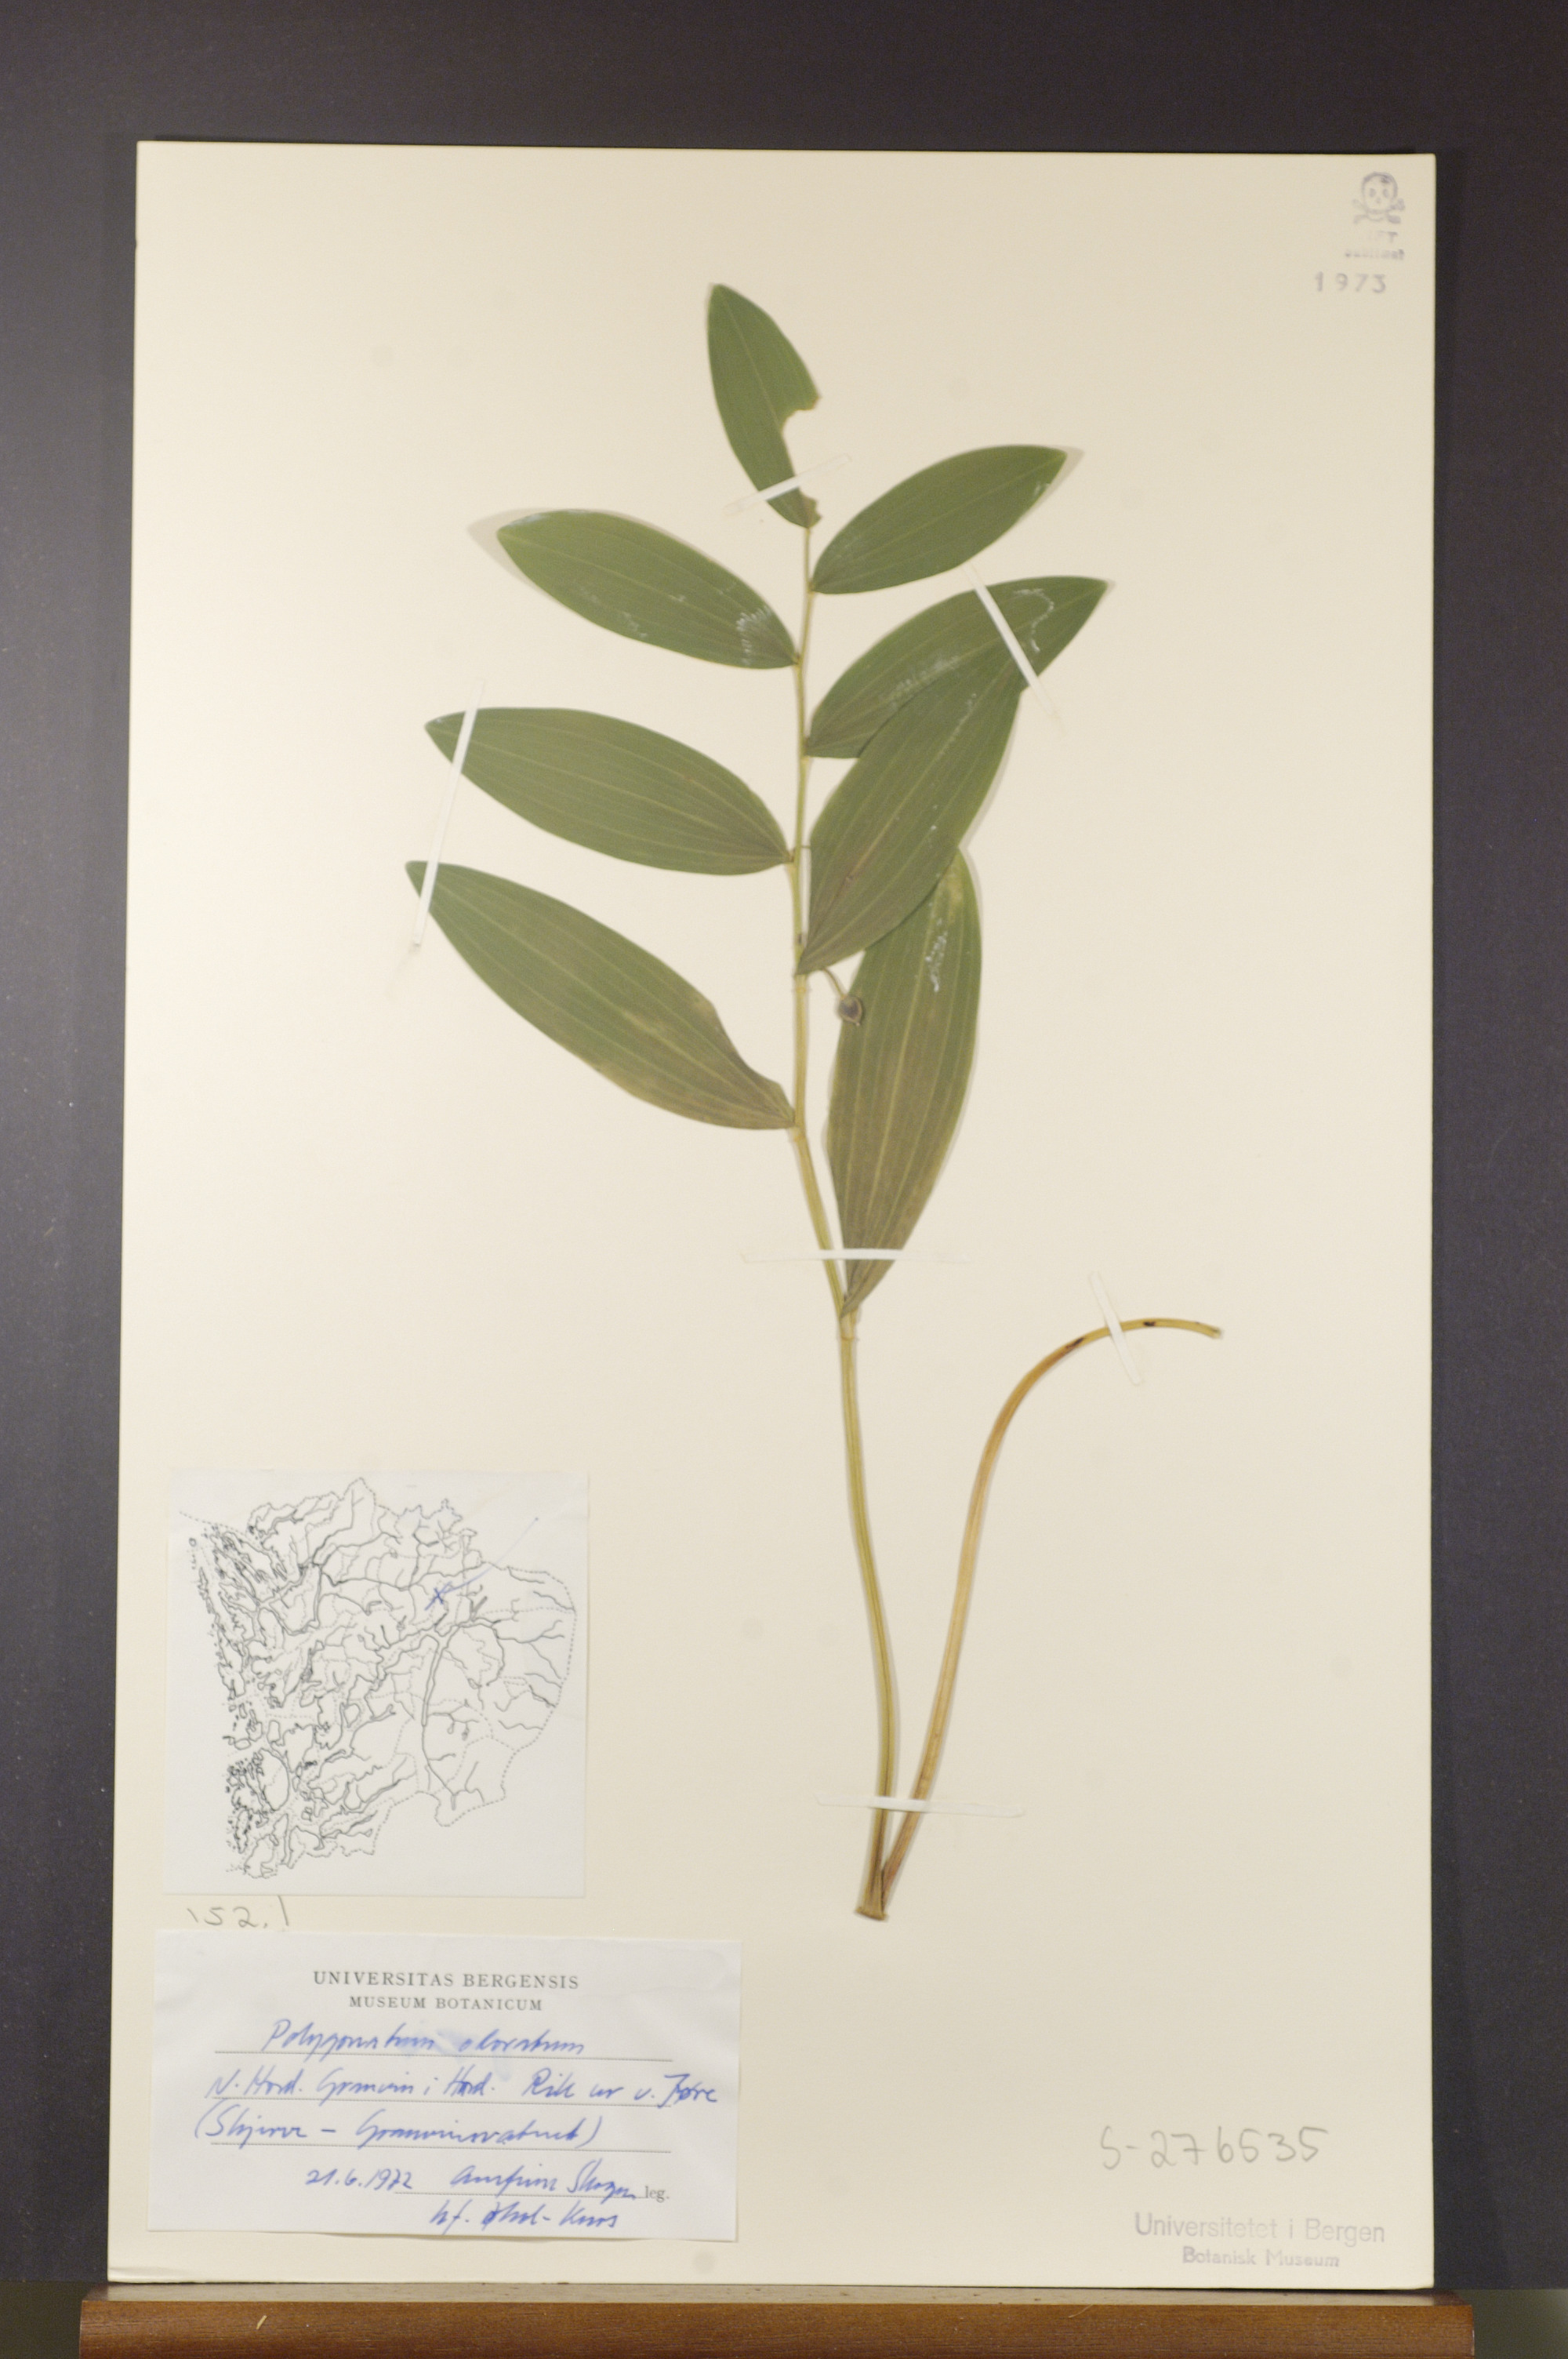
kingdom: Plantae
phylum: Tracheophyta
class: Liliopsida
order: Asparagales
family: Asparagaceae
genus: Polygonatum
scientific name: Polygonatum odoratum
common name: Angular solomon's-seal
